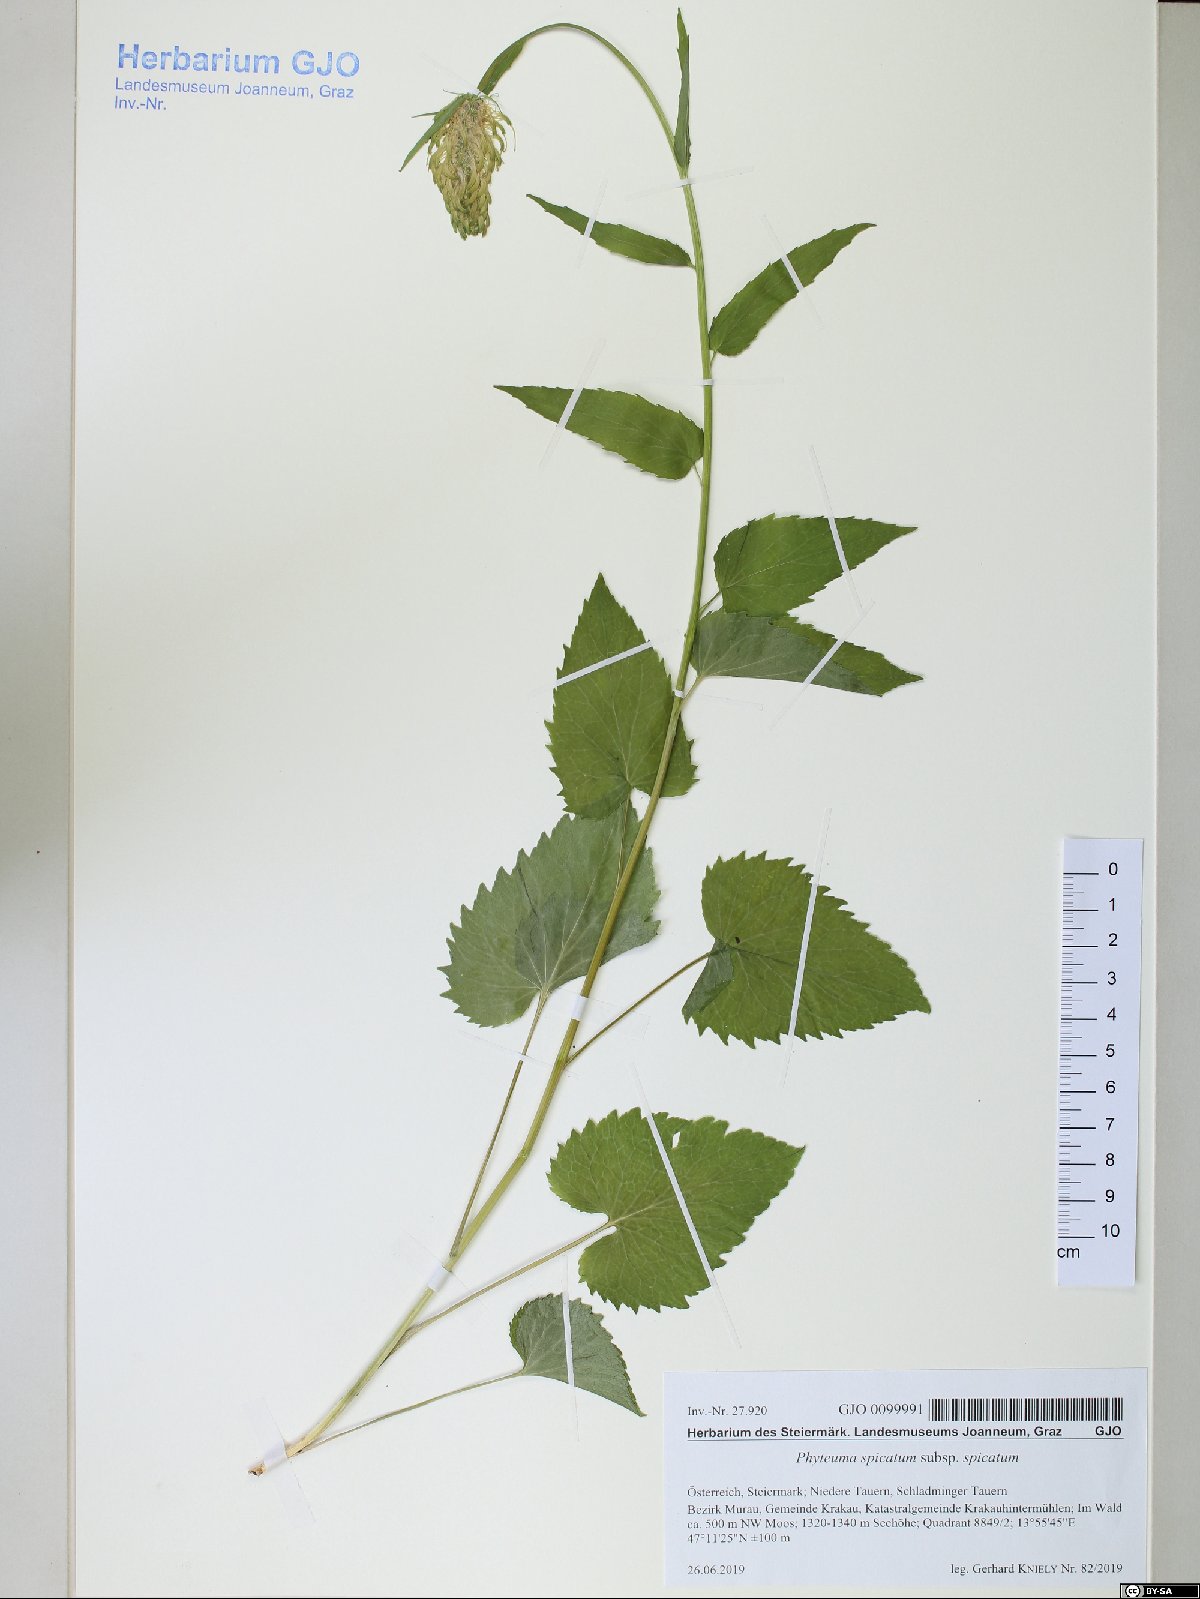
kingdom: Plantae
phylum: Tracheophyta
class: Magnoliopsida
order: Asterales
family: Campanulaceae
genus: Phyteuma
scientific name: Phyteuma spicatum
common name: Spiked rampion
